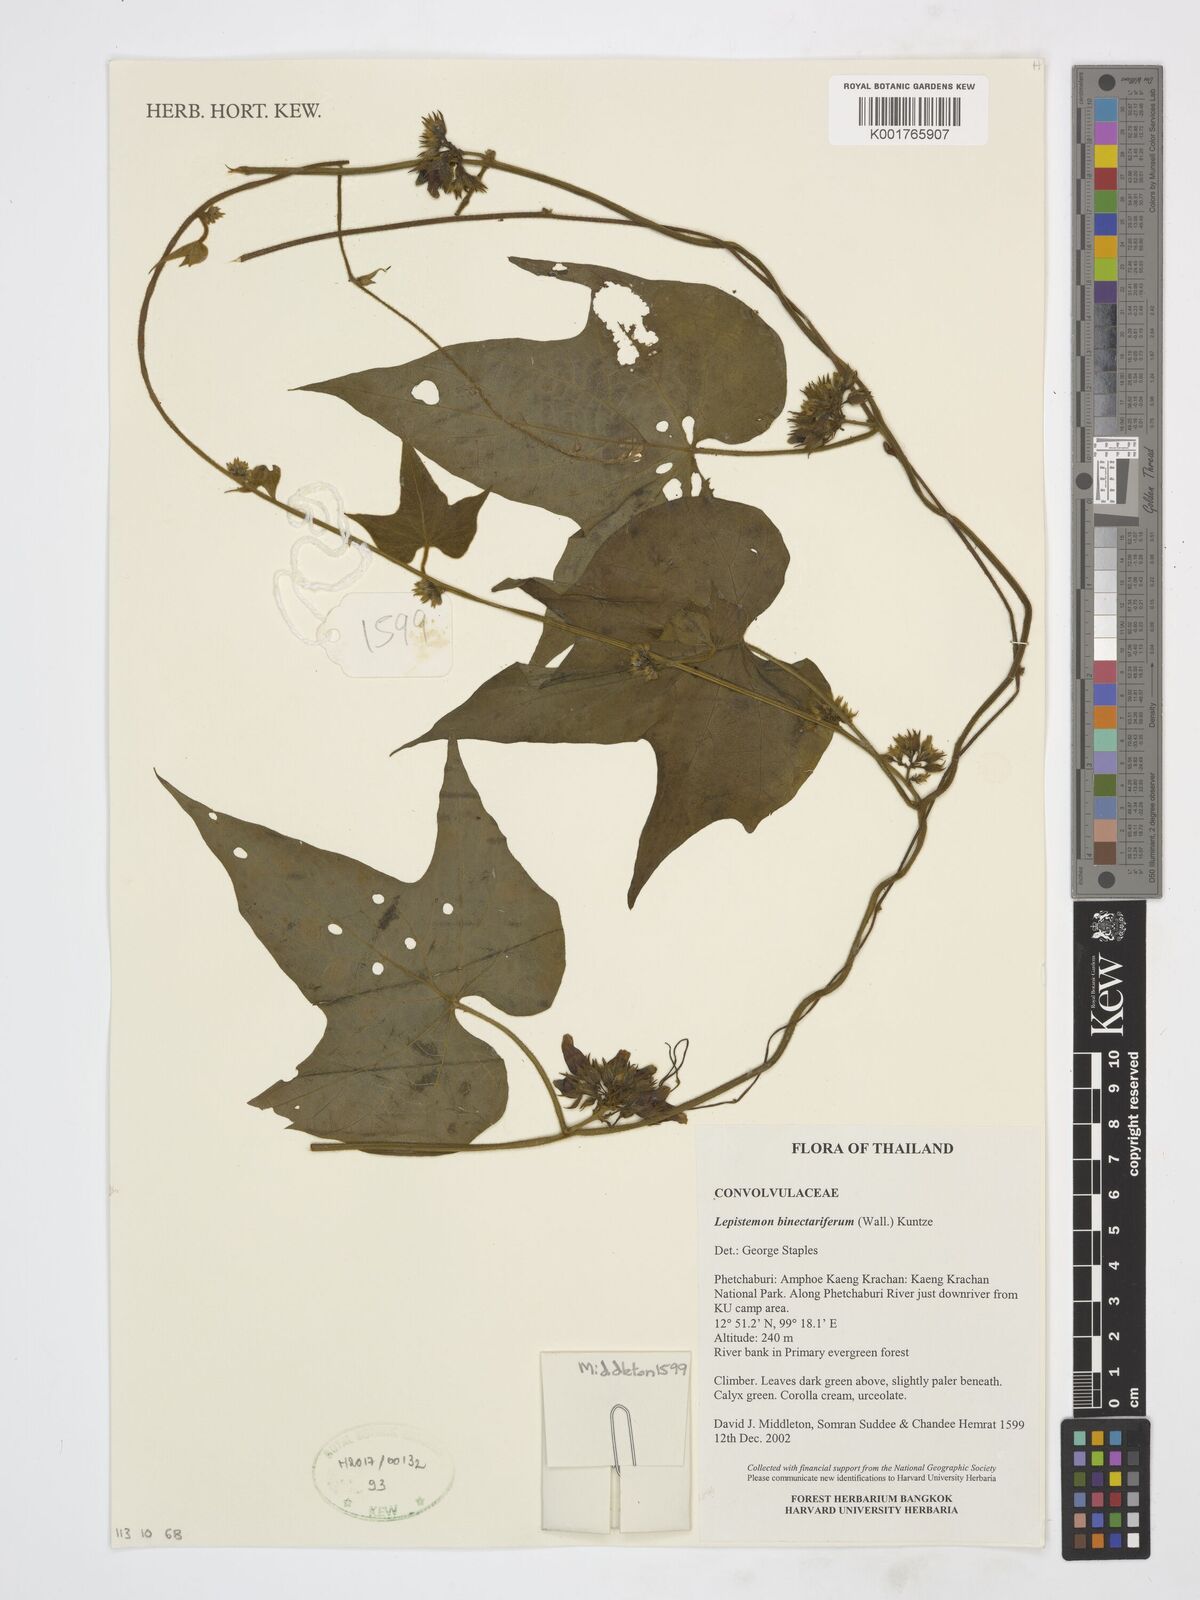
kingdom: Plantae
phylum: Tracheophyta
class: Magnoliopsida
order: Solanales
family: Convolvulaceae
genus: Lepistemon
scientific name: Lepistemon
